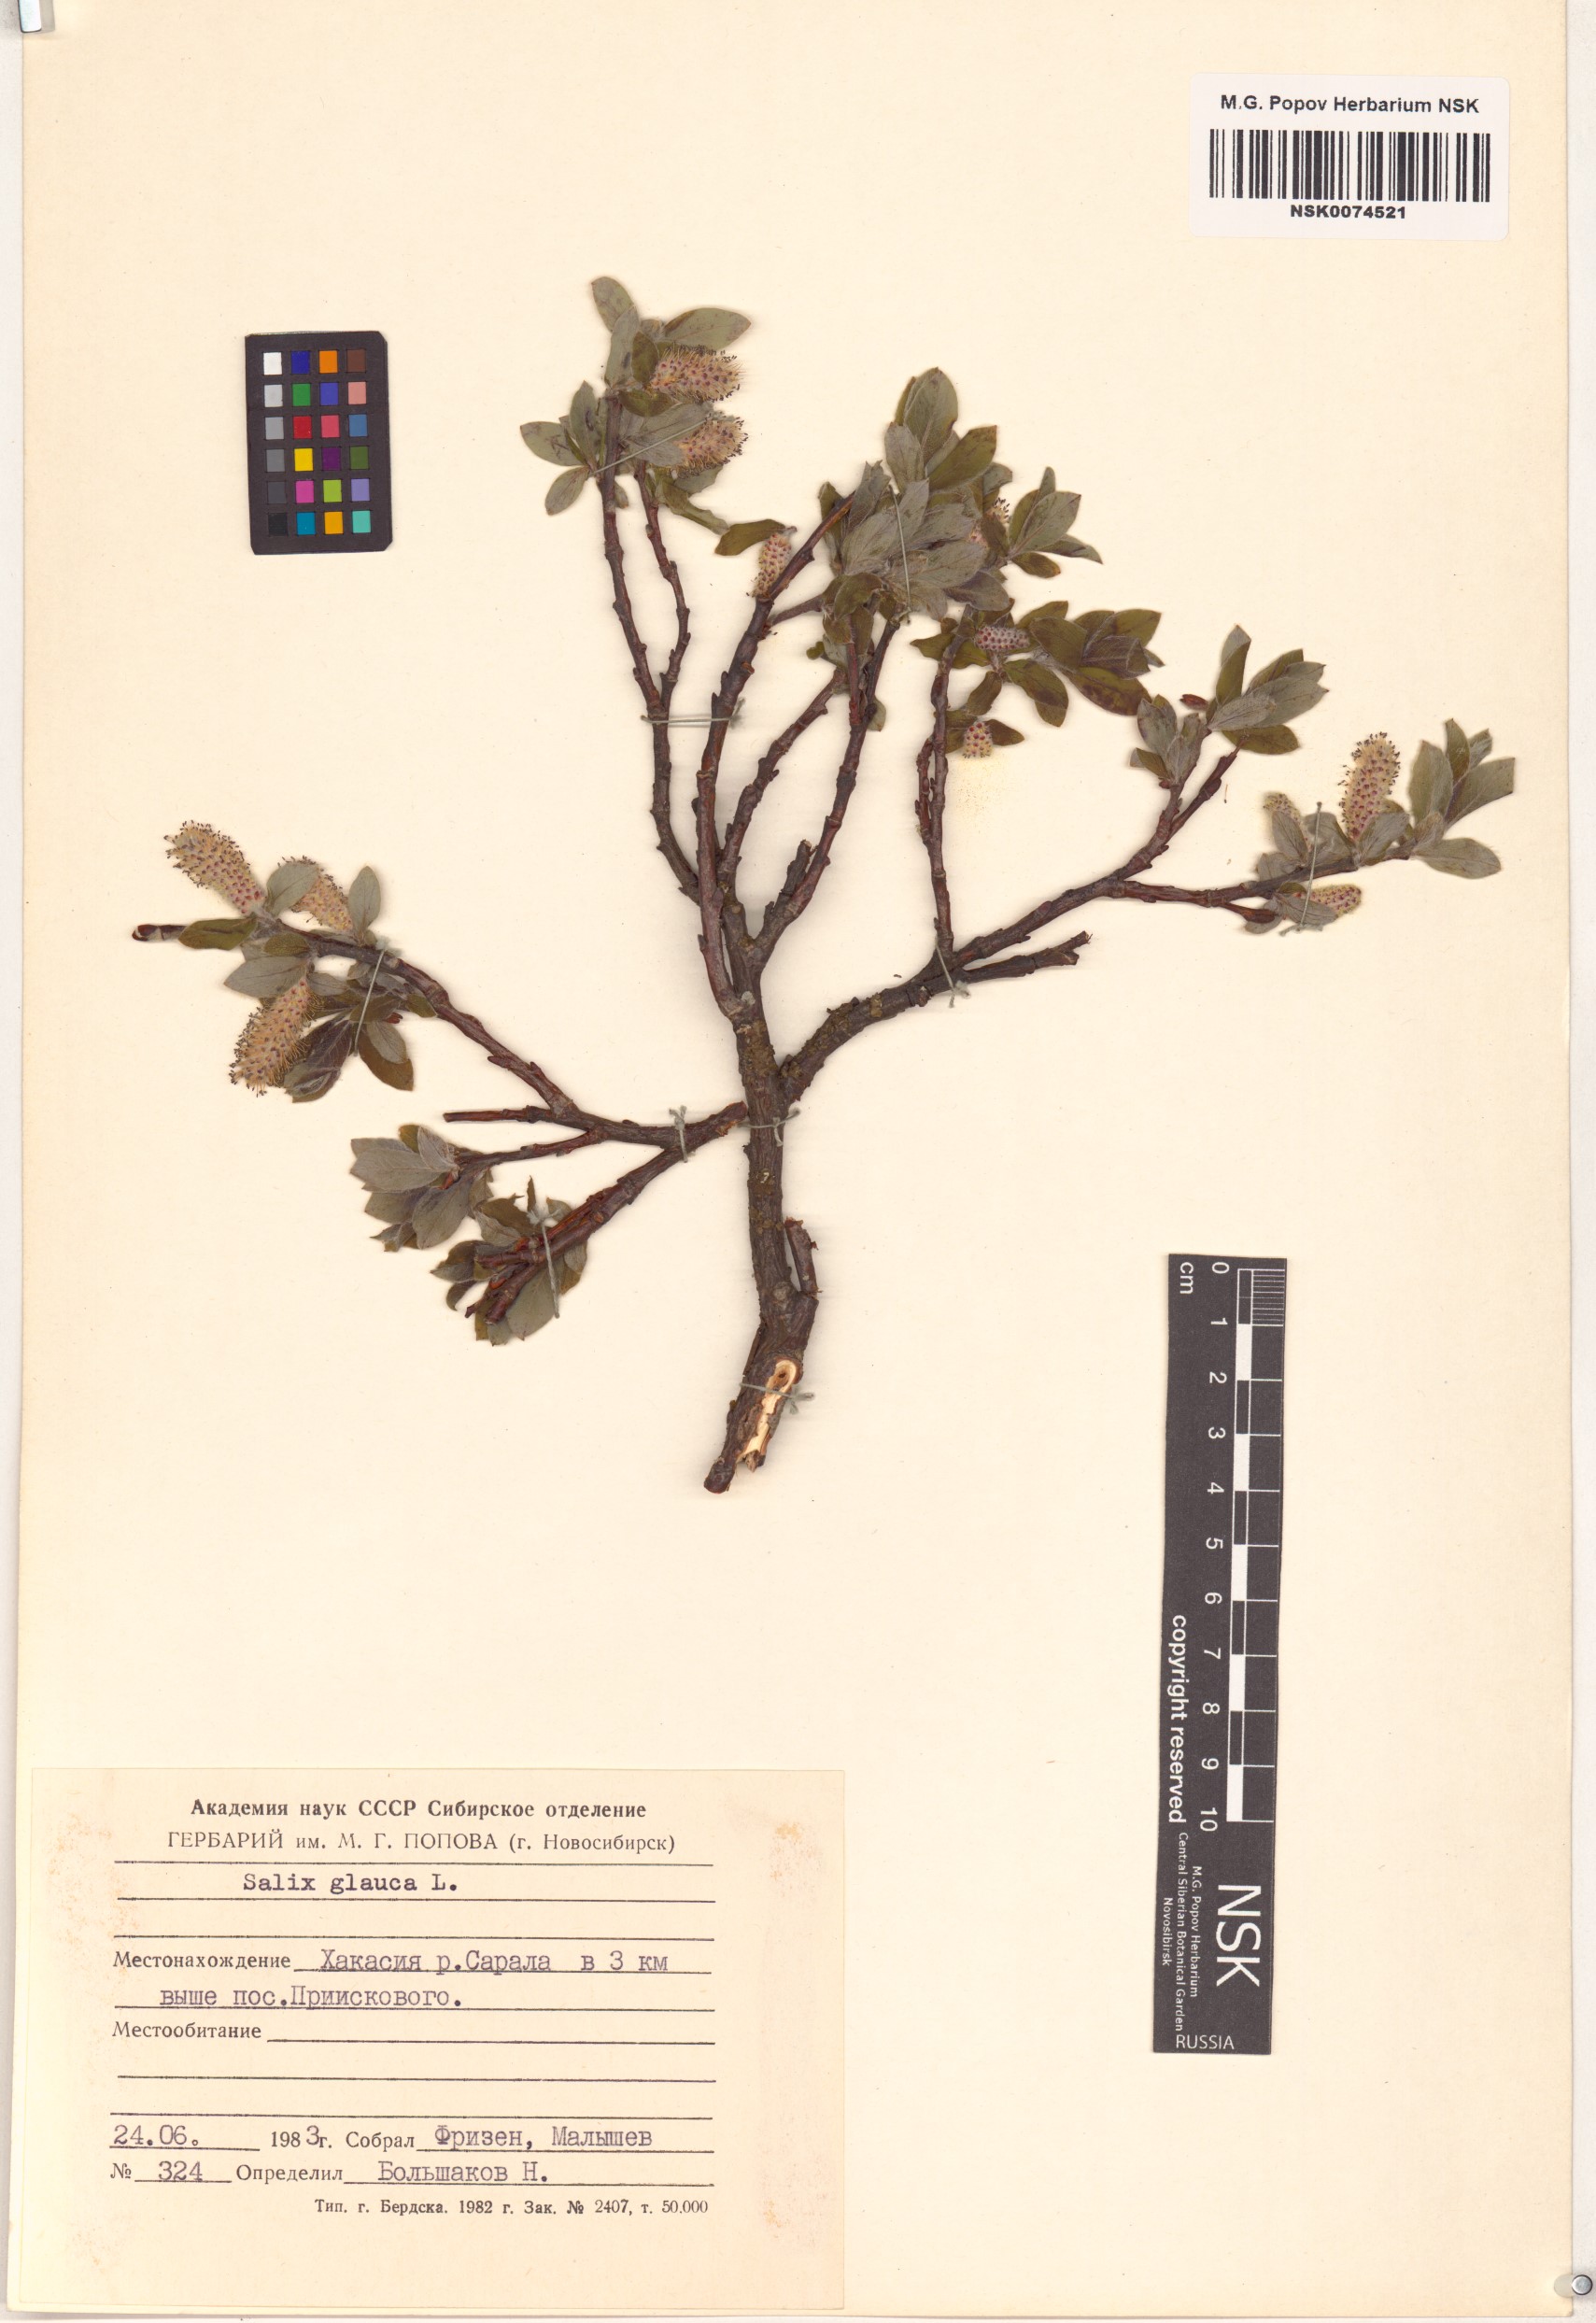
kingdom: Plantae
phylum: Tracheophyta
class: Magnoliopsida
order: Malpighiales
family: Salicaceae
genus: Salix
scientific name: Salix glauca
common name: Glaucous willow
